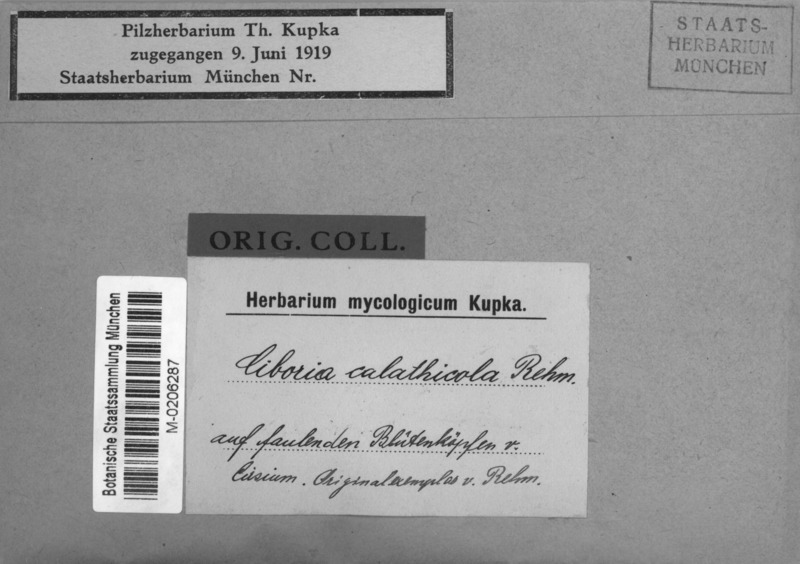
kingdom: Plantae
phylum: Tracheophyta
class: Magnoliopsida
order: Asterales
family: Asteraceae
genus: Cirsium
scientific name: Cirsium
